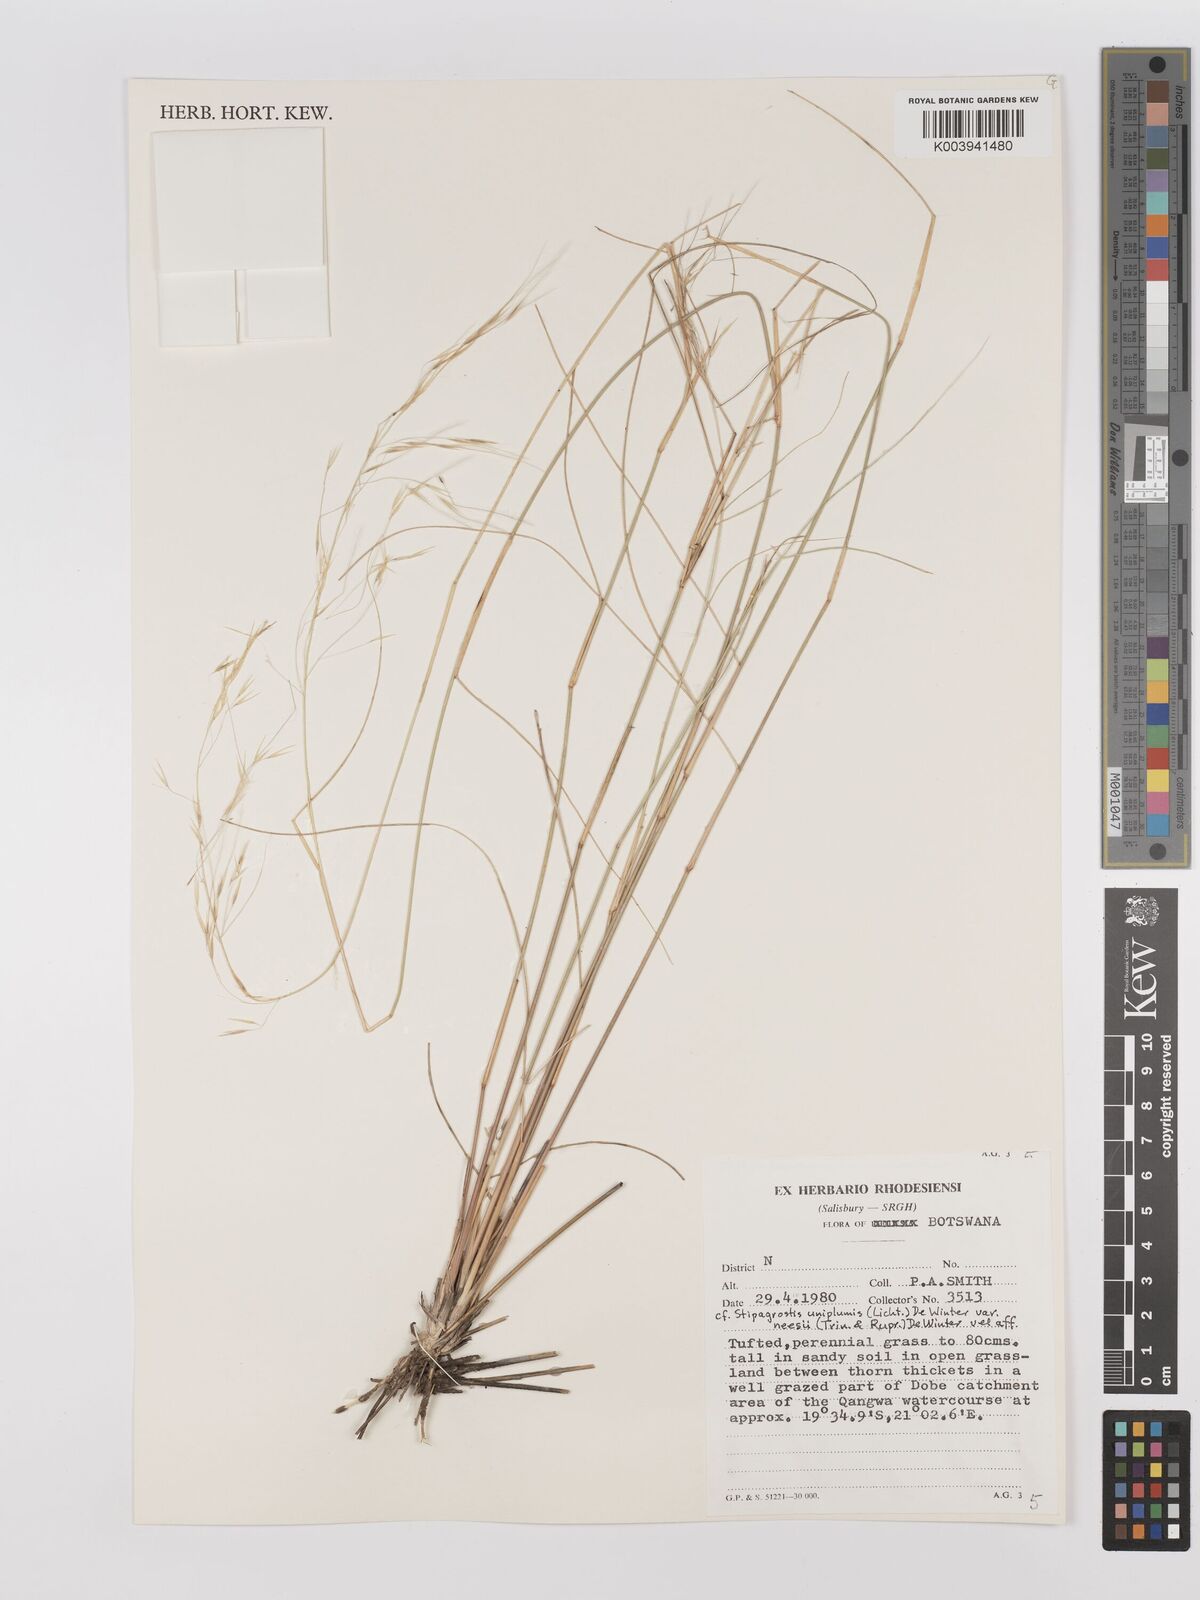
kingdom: Plantae
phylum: Tracheophyta
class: Liliopsida
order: Poales
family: Poaceae
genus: Stipagrostis
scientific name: Stipagrostis uniplumis
